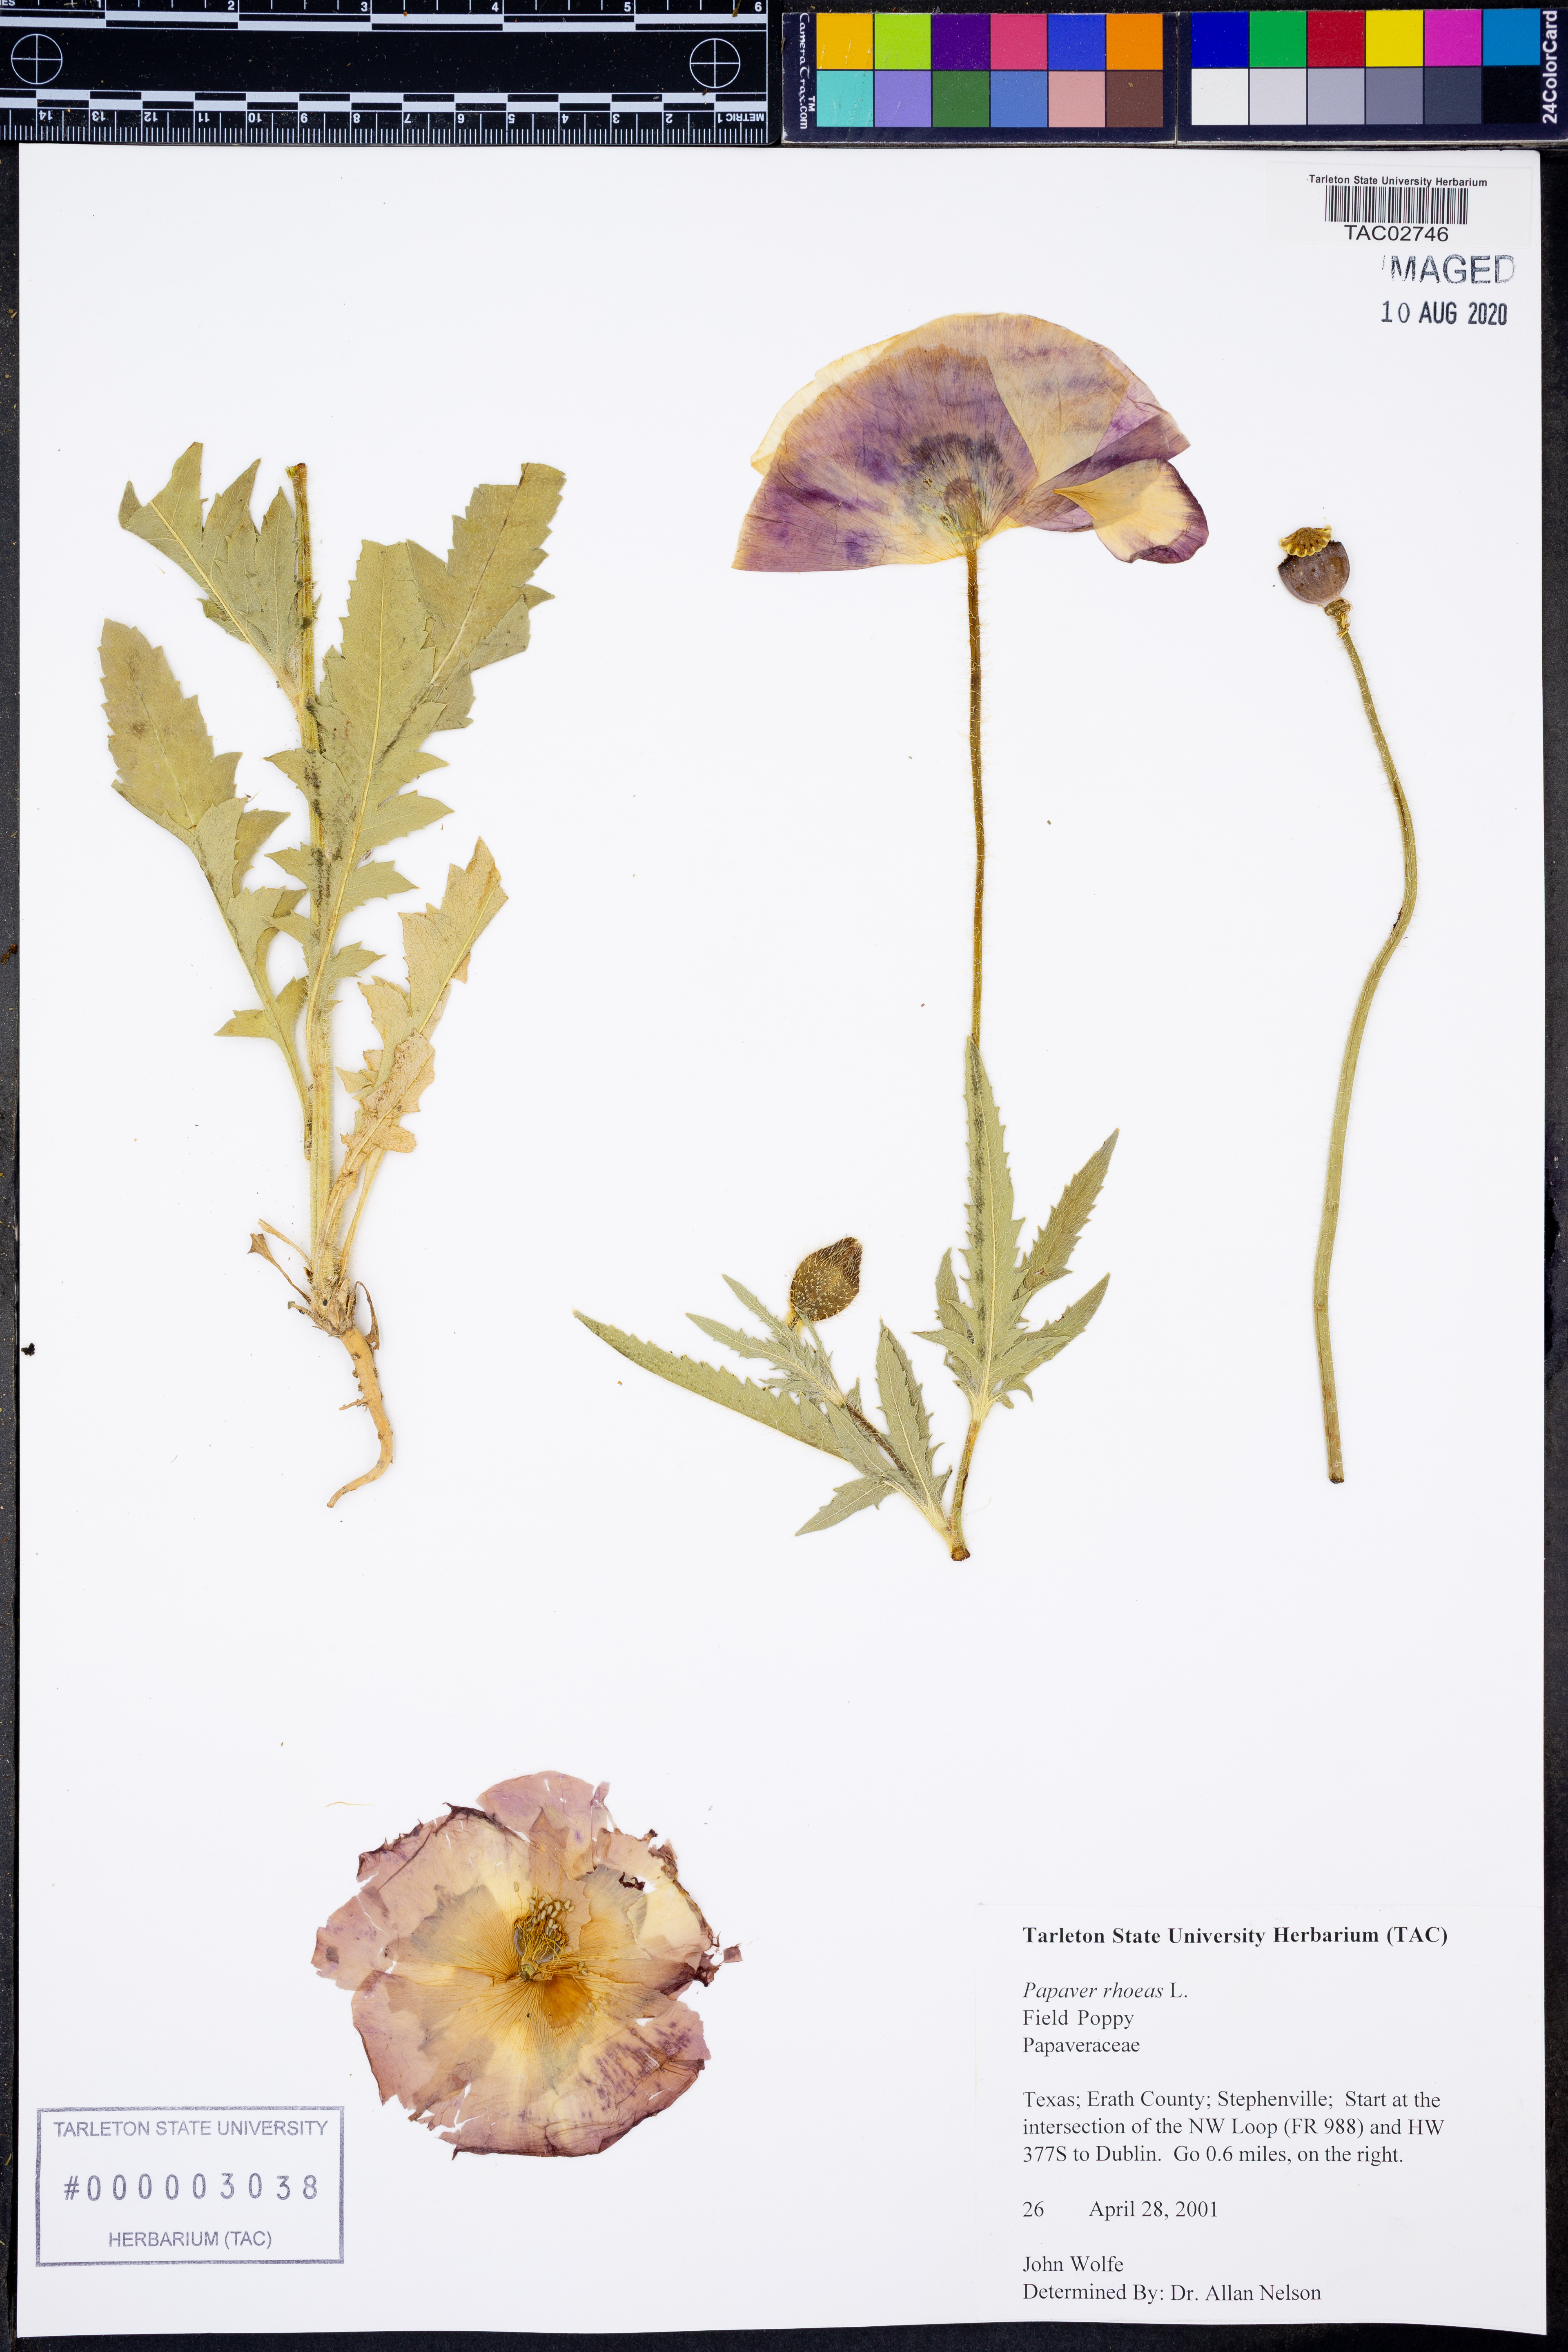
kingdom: Plantae
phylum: Tracheophyta
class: Magnoliopsida
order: Ranunculales
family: Papaveraceae
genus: Papaver
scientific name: Papaver rhoeas
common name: Corn poppy
